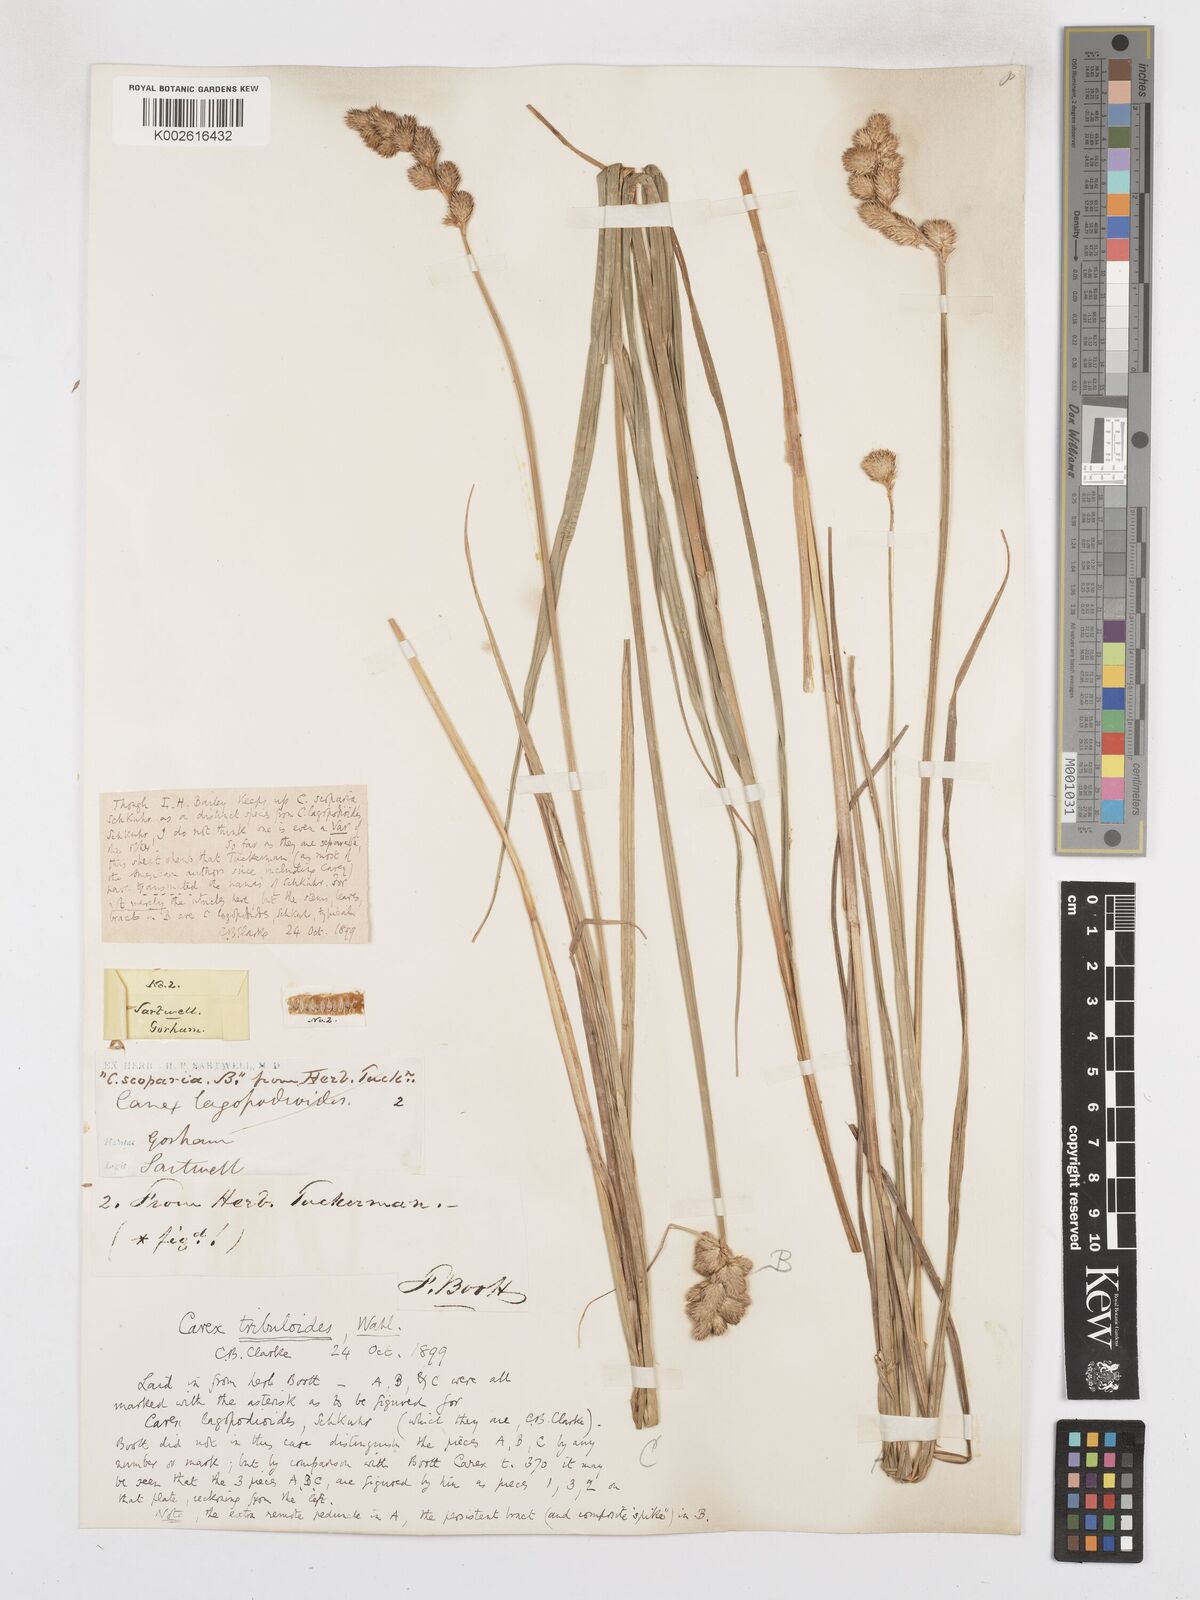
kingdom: Plantae
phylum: Tracheophyta
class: Liliopsida
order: Poales
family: Cyperaceae
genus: Carex
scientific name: Carex tribuloides
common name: Blunt broom sedge
